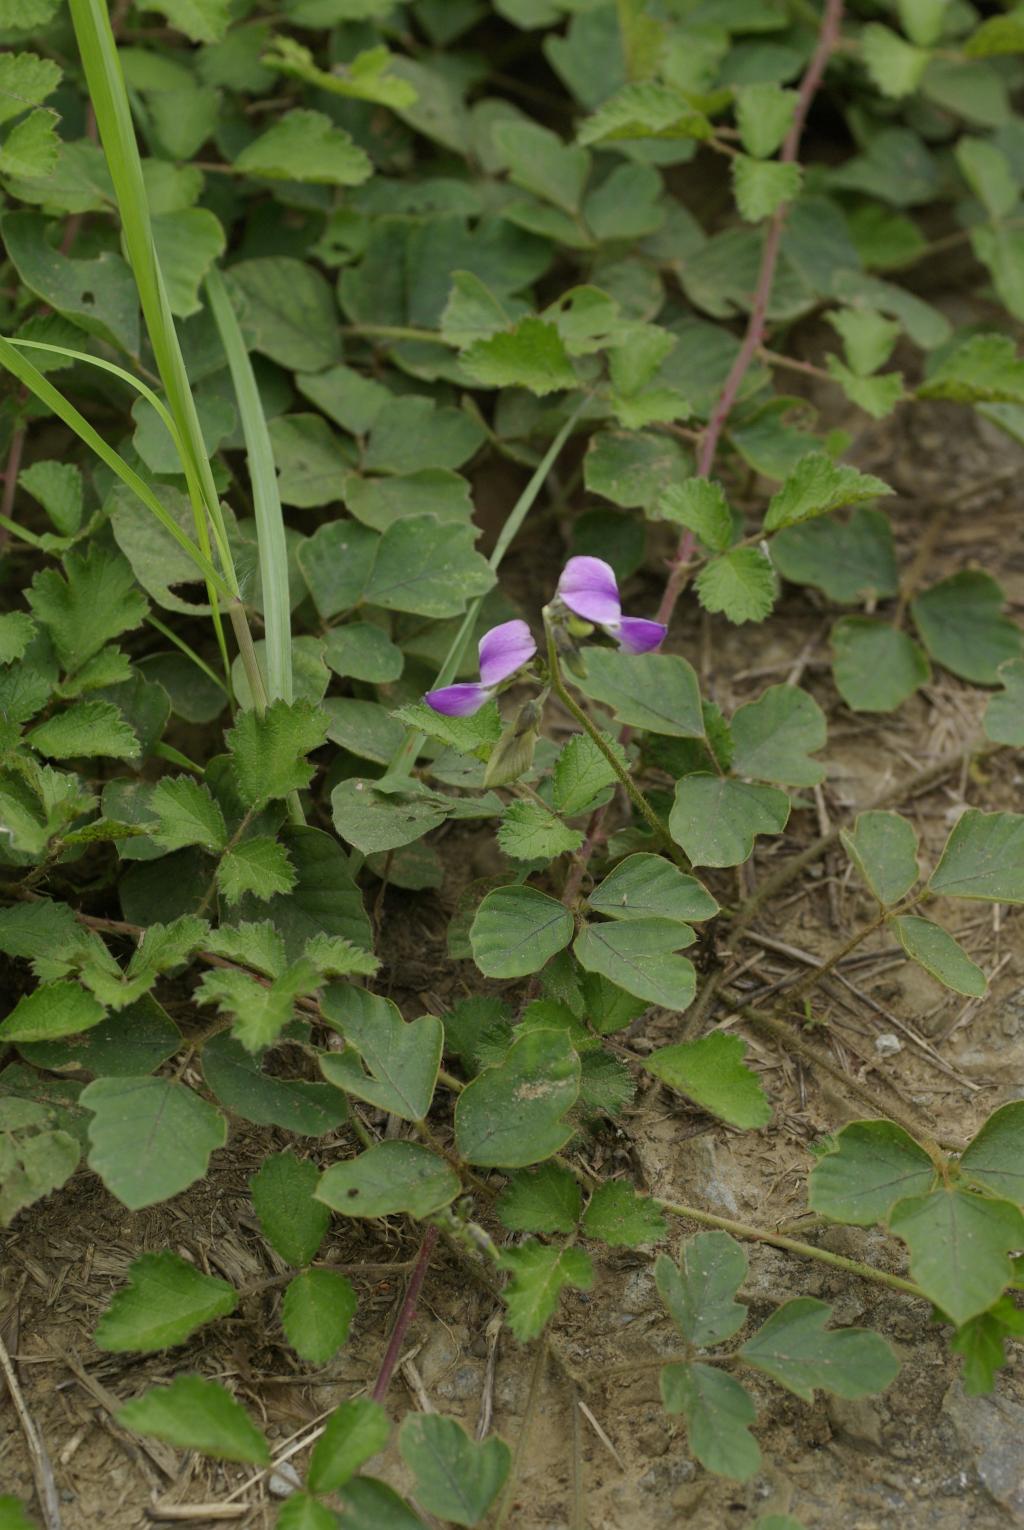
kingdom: Plantae
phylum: Tracheophyta
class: Magnoliopsida
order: Fabales
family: Fabaceae
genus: Neustanthus
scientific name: Neustanthus phaseoloides
